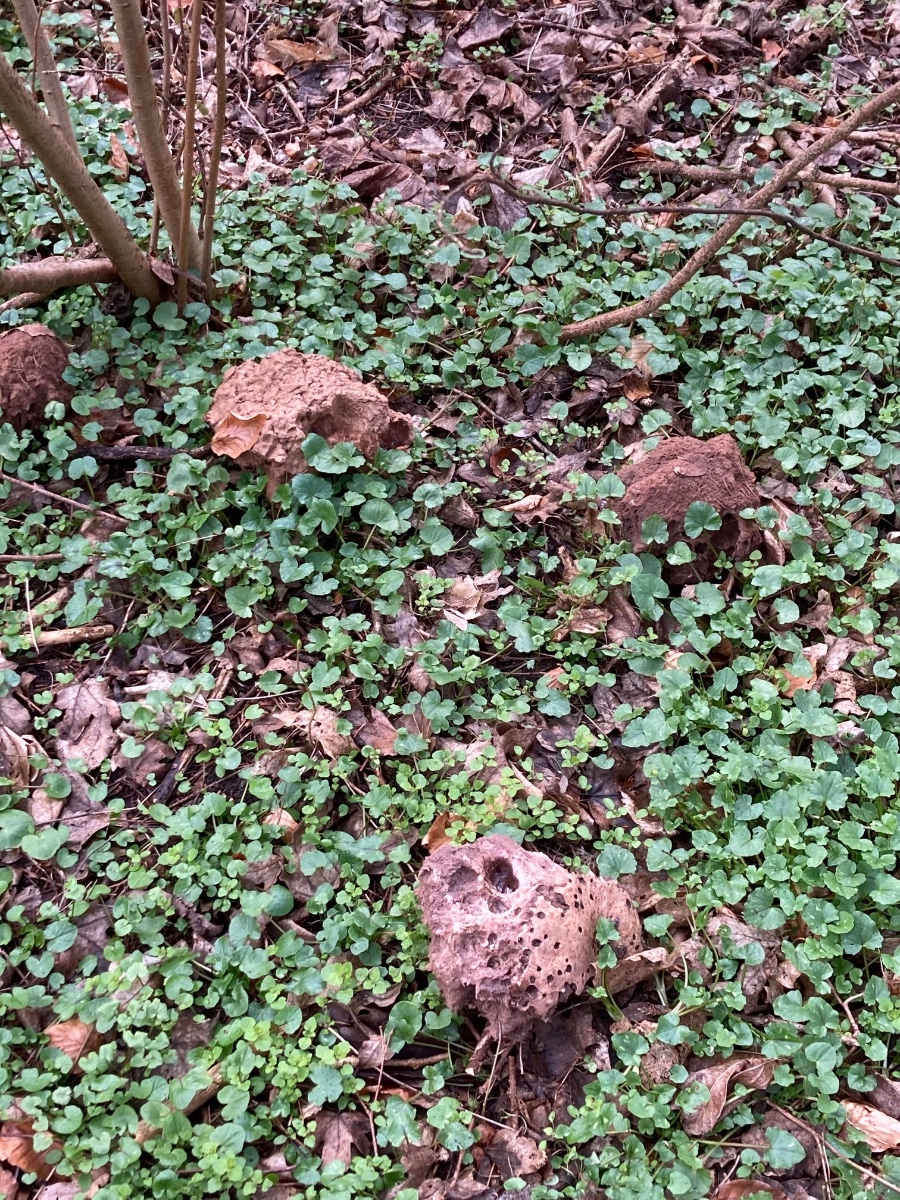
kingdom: Fungi
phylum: Basidiomycota
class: Agaricomycetes
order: Agaricales
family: Lycoperdaceae
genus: Calvatia
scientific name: Calvatia gigantea
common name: kæmpestøvbold
